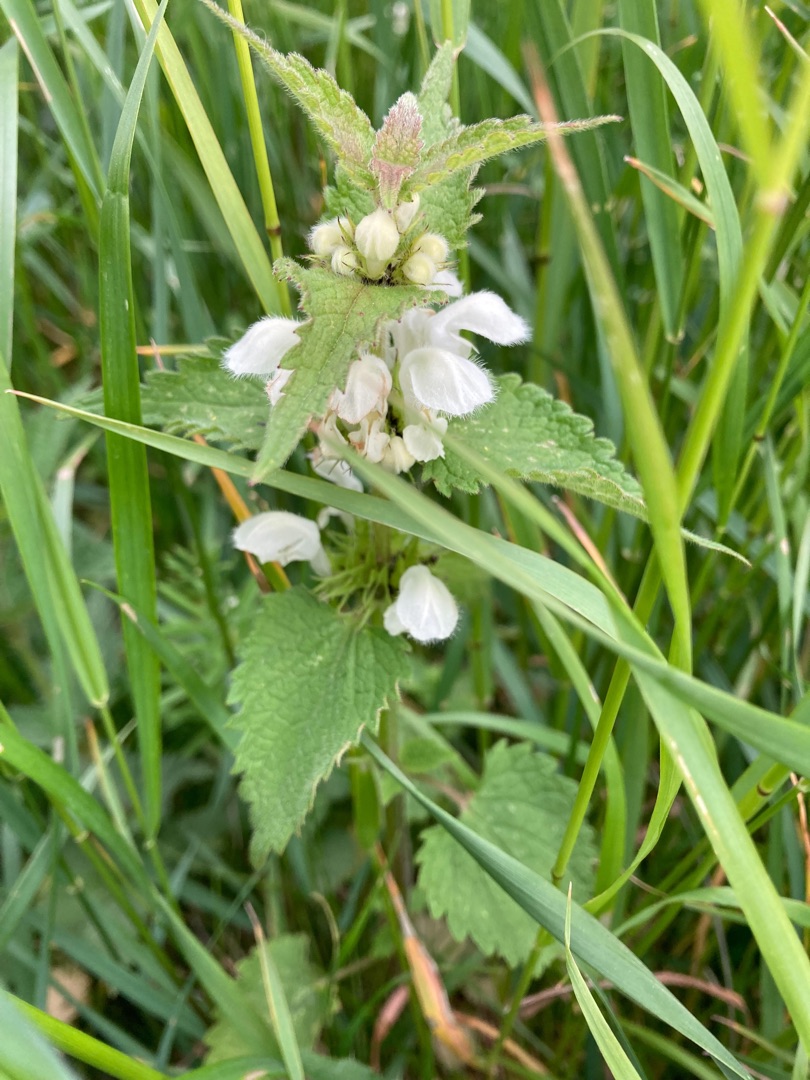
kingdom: Plantae
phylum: Tracheophyta
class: Magnoliopsida
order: Lamiales
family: Lamiaceae
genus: Lamium
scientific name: Lamium album
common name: Døvnælde
